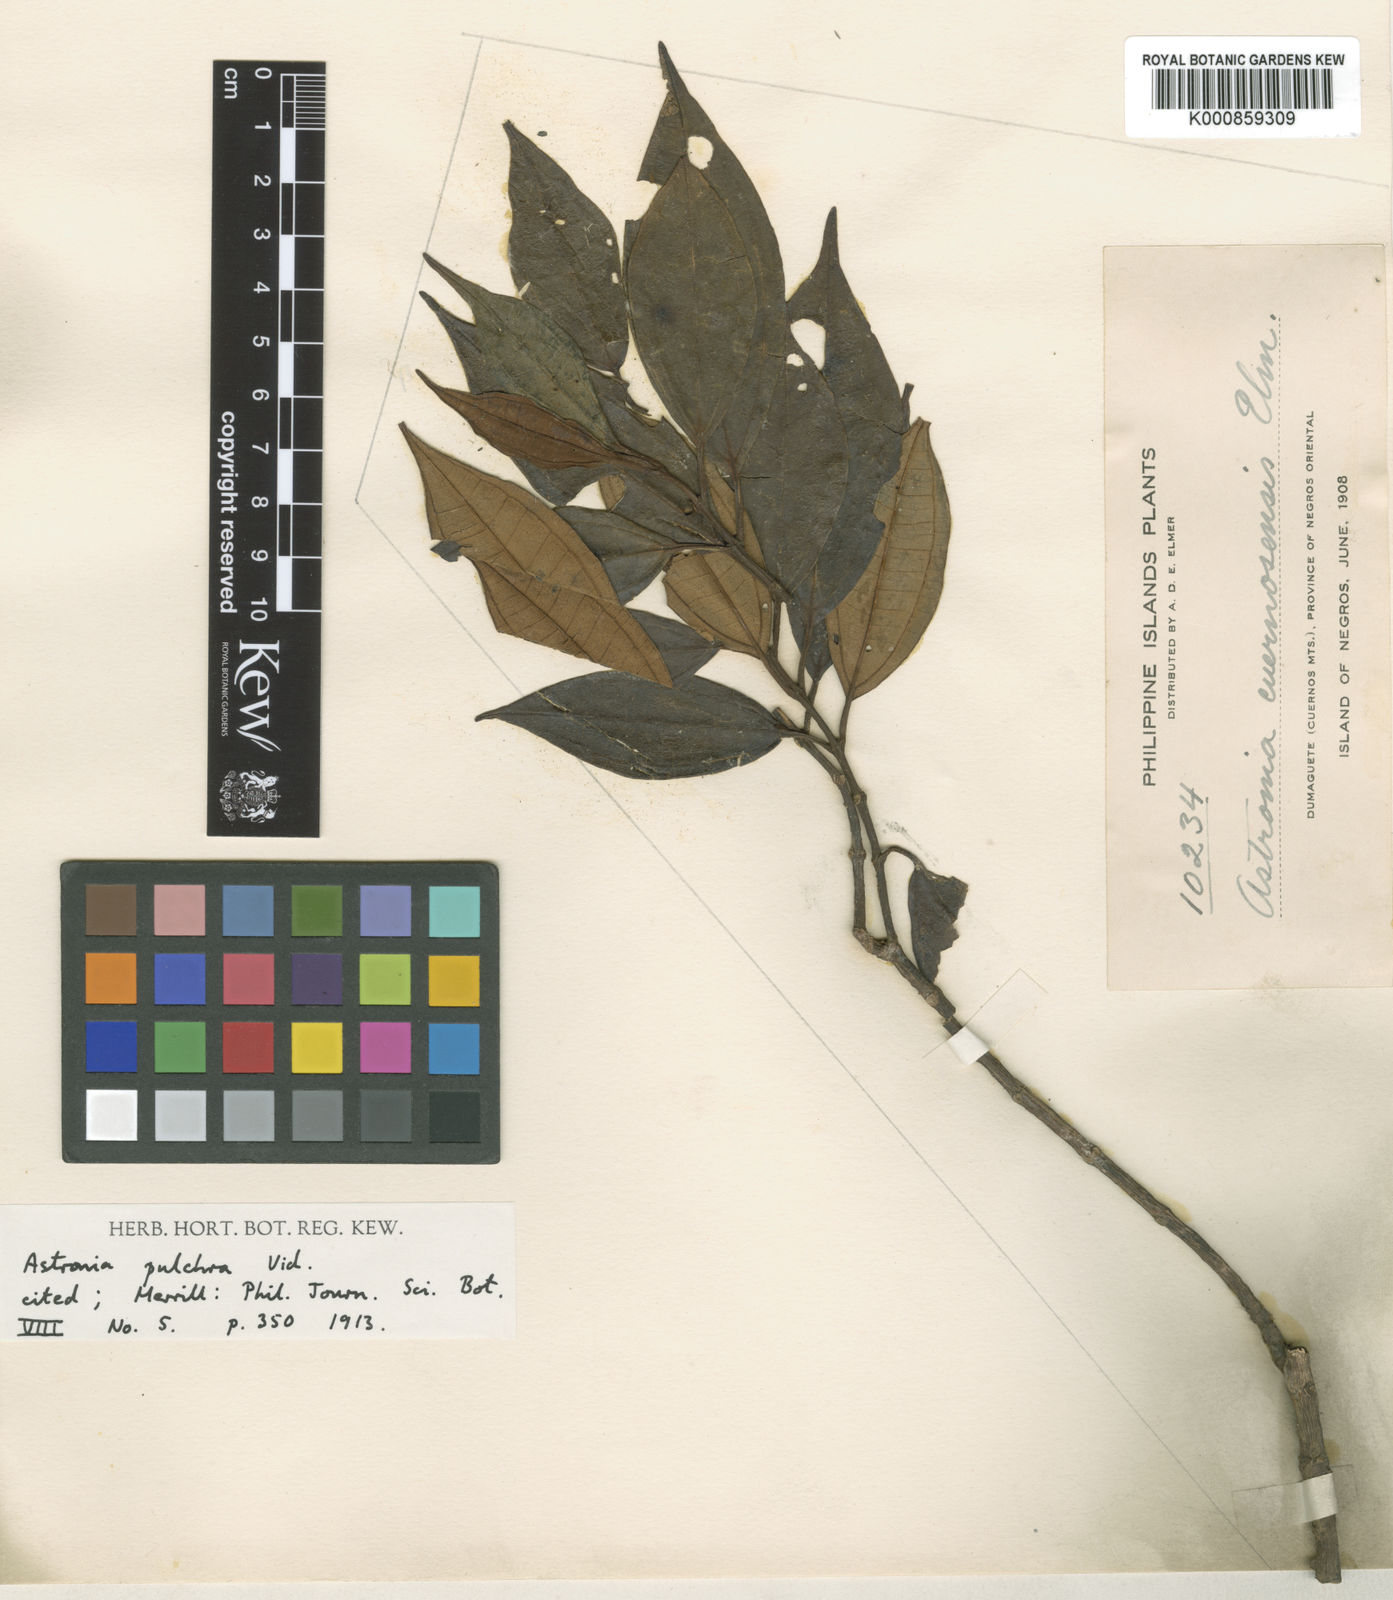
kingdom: Plantae
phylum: Tracheophyta
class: Magnoliopsida
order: Myrtales
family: Melastomataceae
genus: Astronia
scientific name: Astronia pulchra
